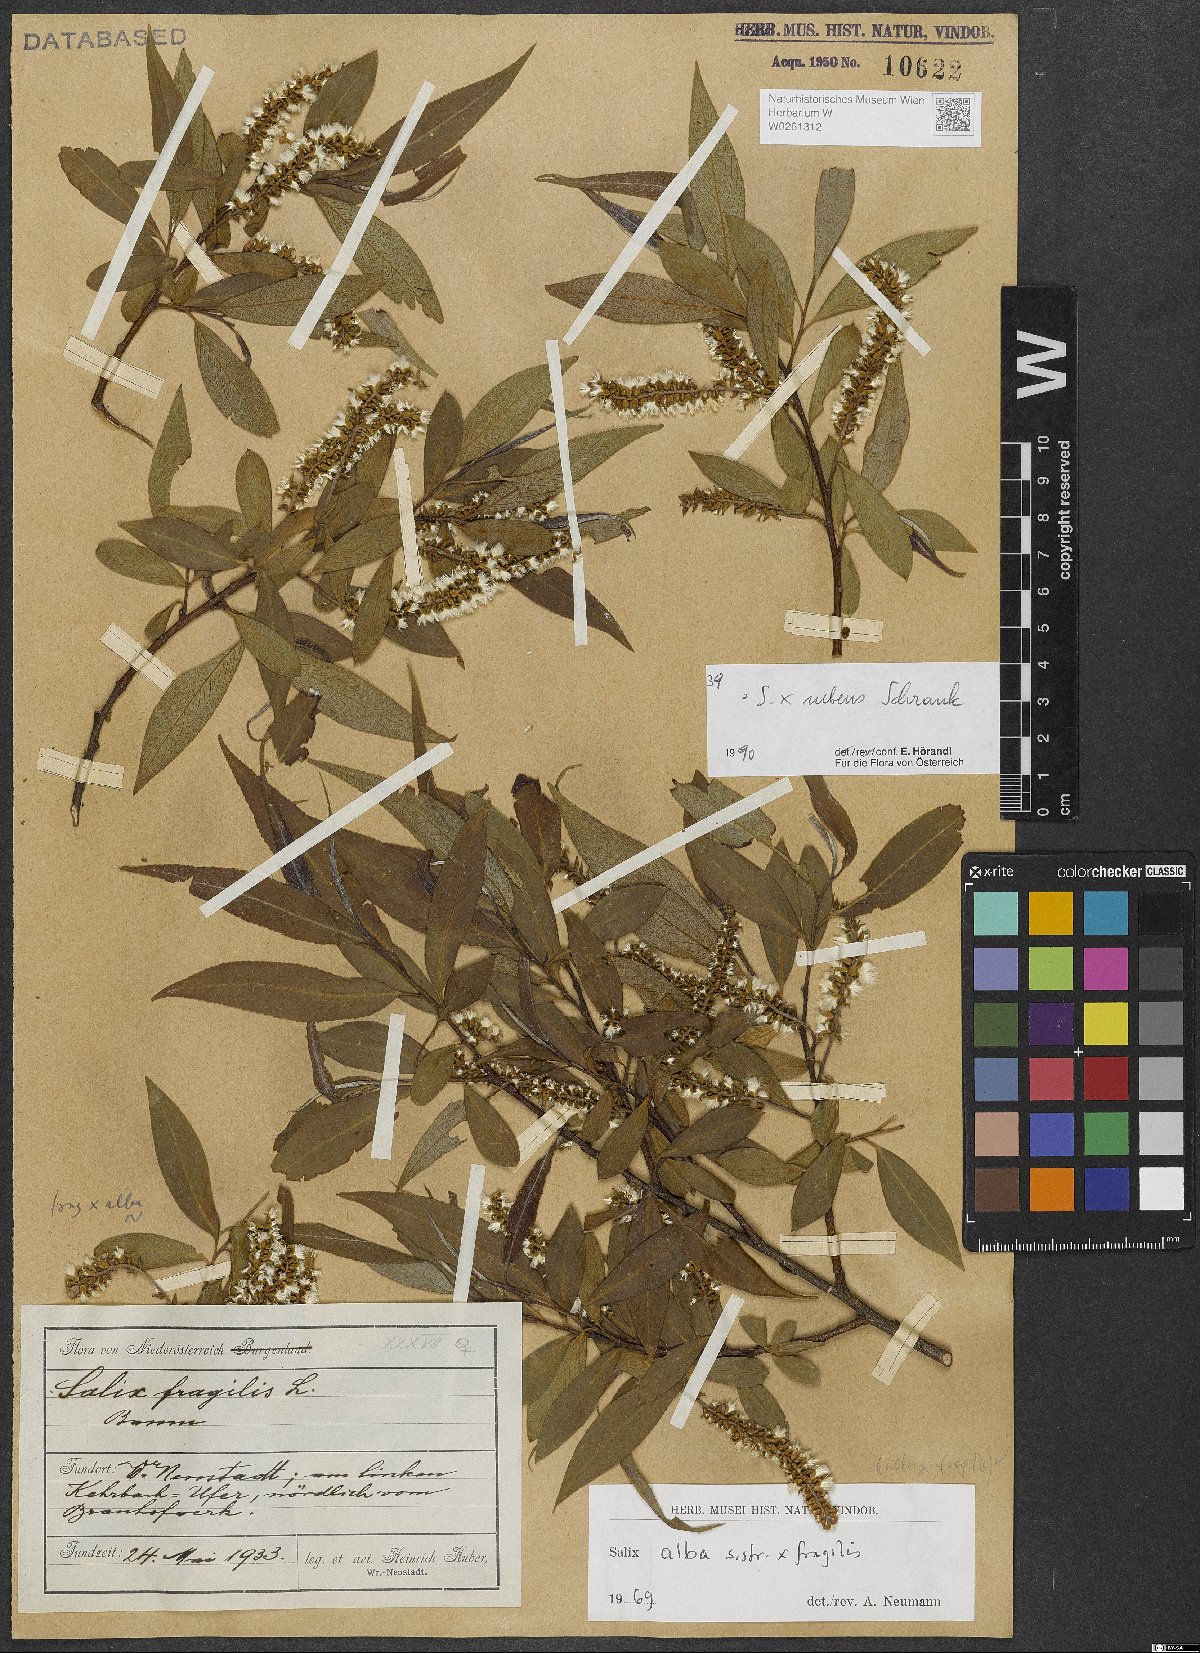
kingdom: Plantae
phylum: Tracheophyta
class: Magnoliopsida
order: Malpighiales
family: Salicaceae
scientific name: Salicaceae
